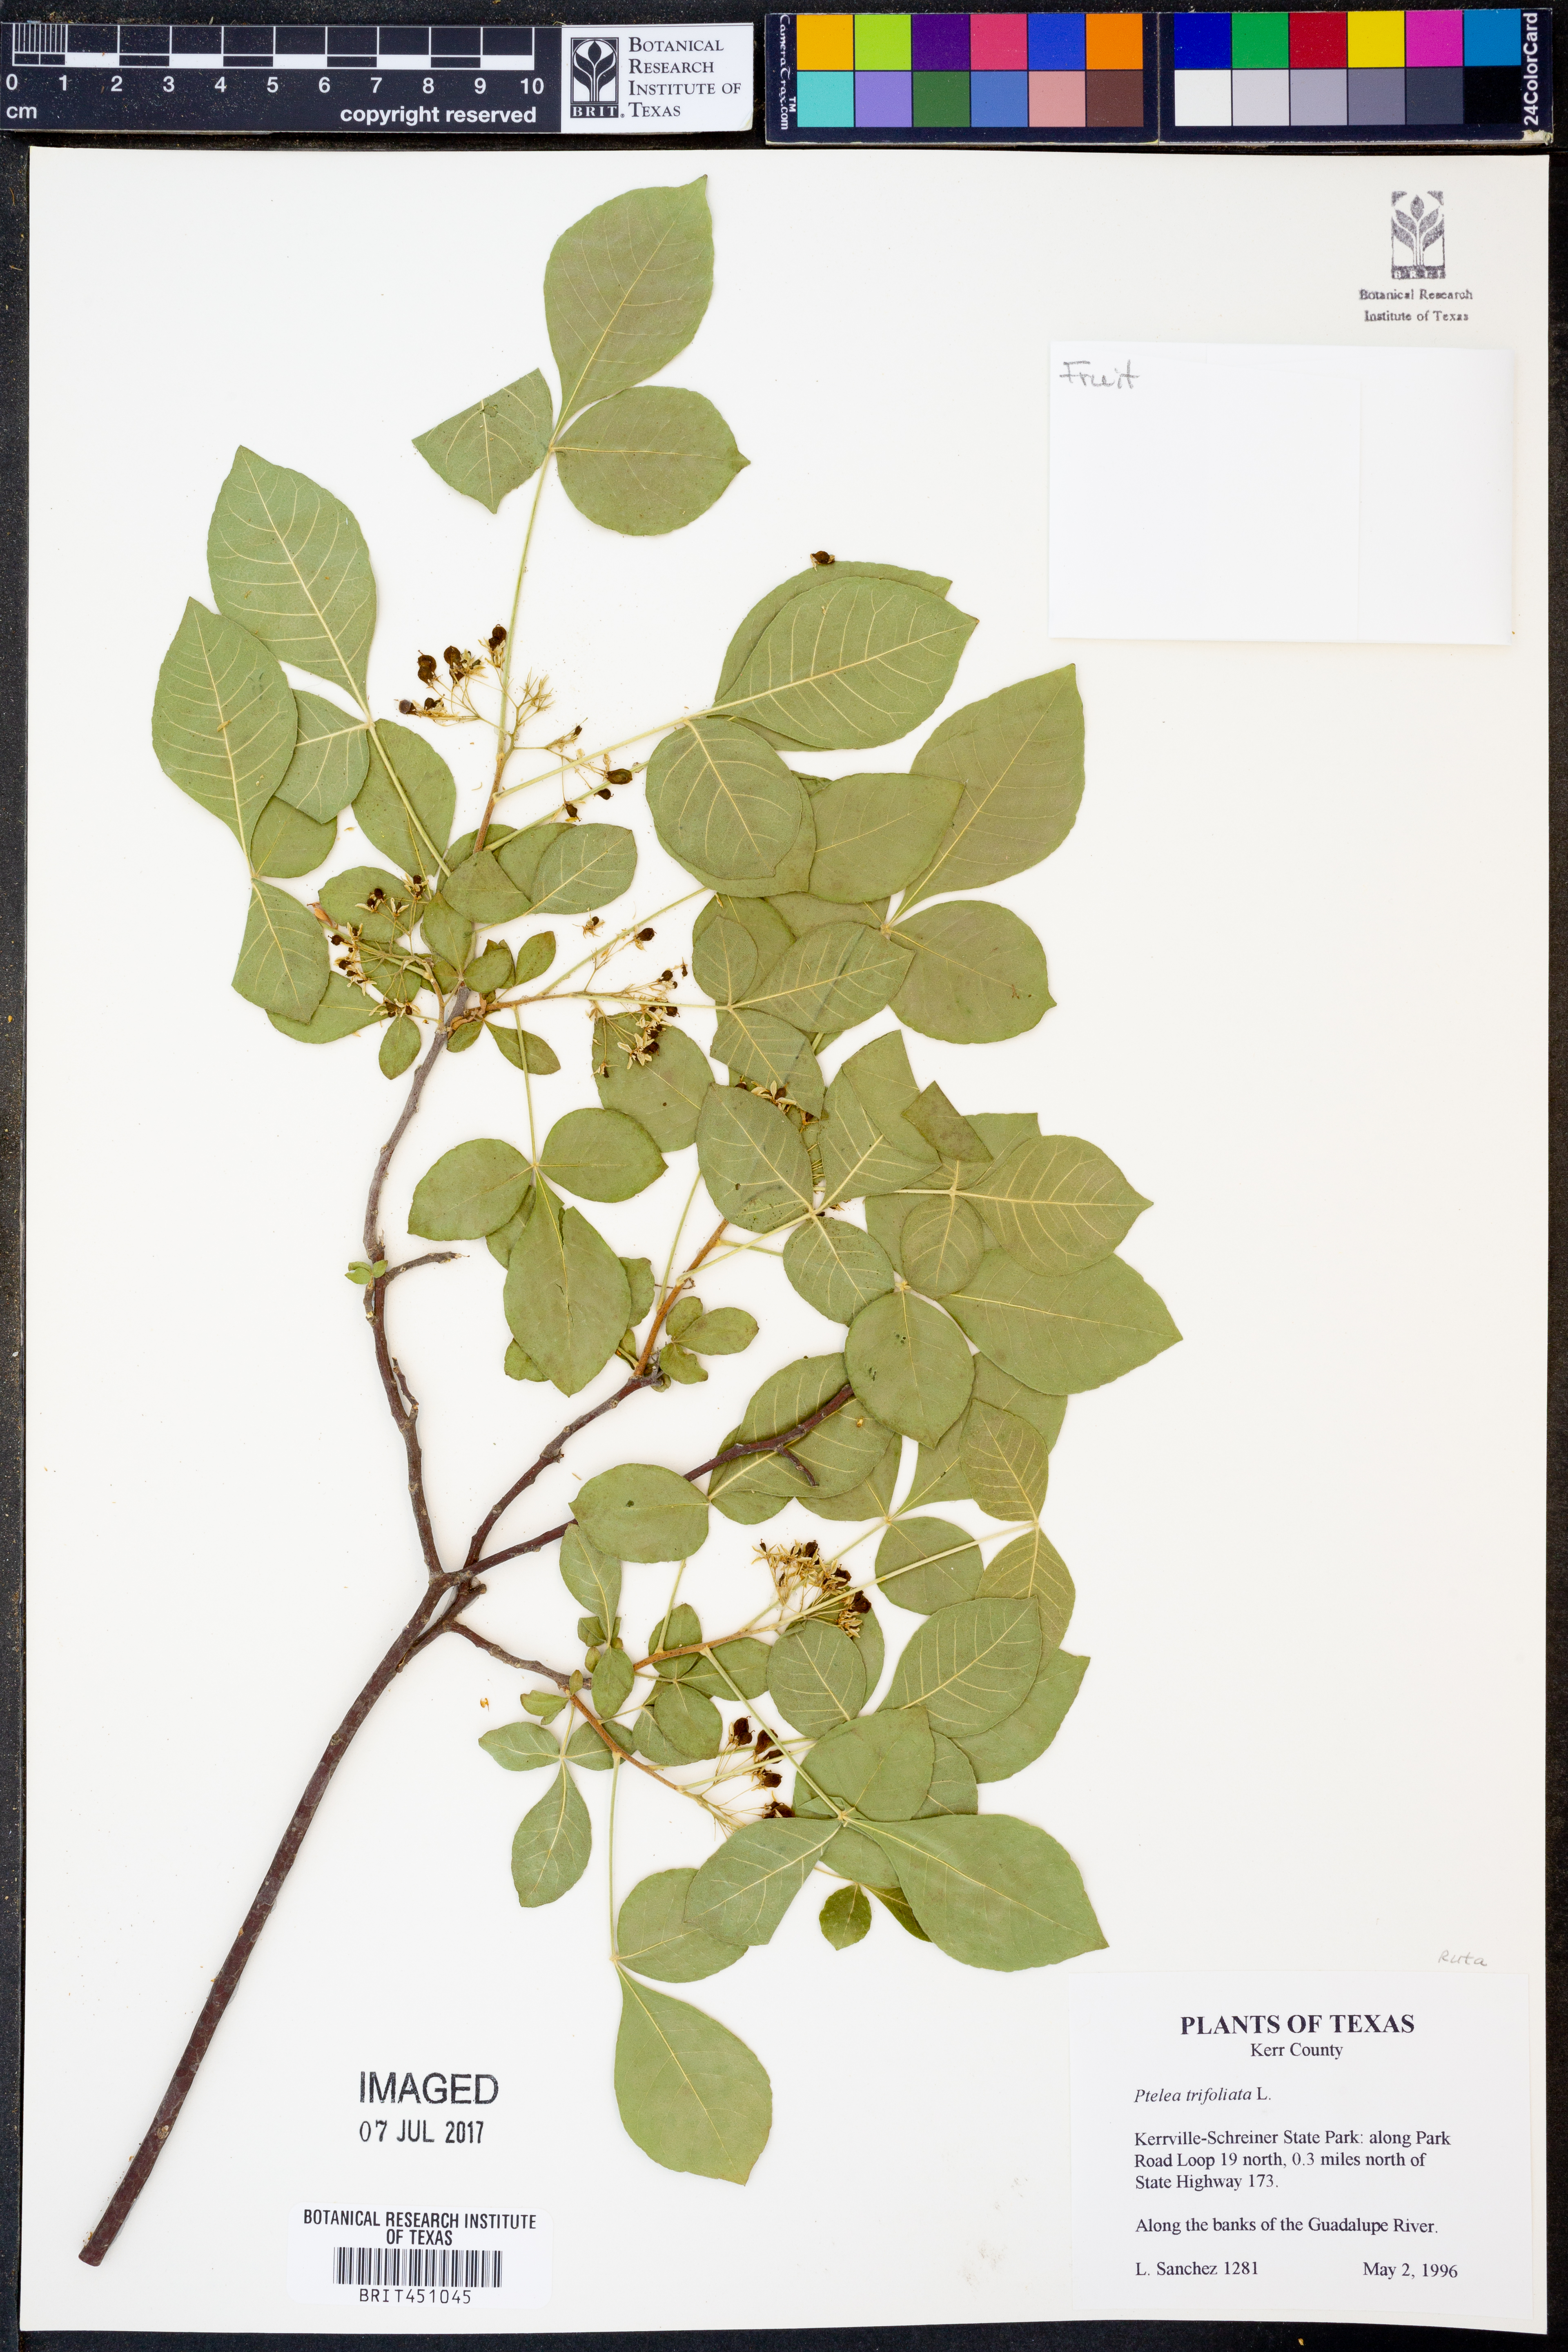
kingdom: Plantae
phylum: Tracheophyta
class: Magnoliopsida
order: Sapindales
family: Rutaceae
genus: Ptelea
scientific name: Ptelea trifoliata
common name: Common hop-tree
